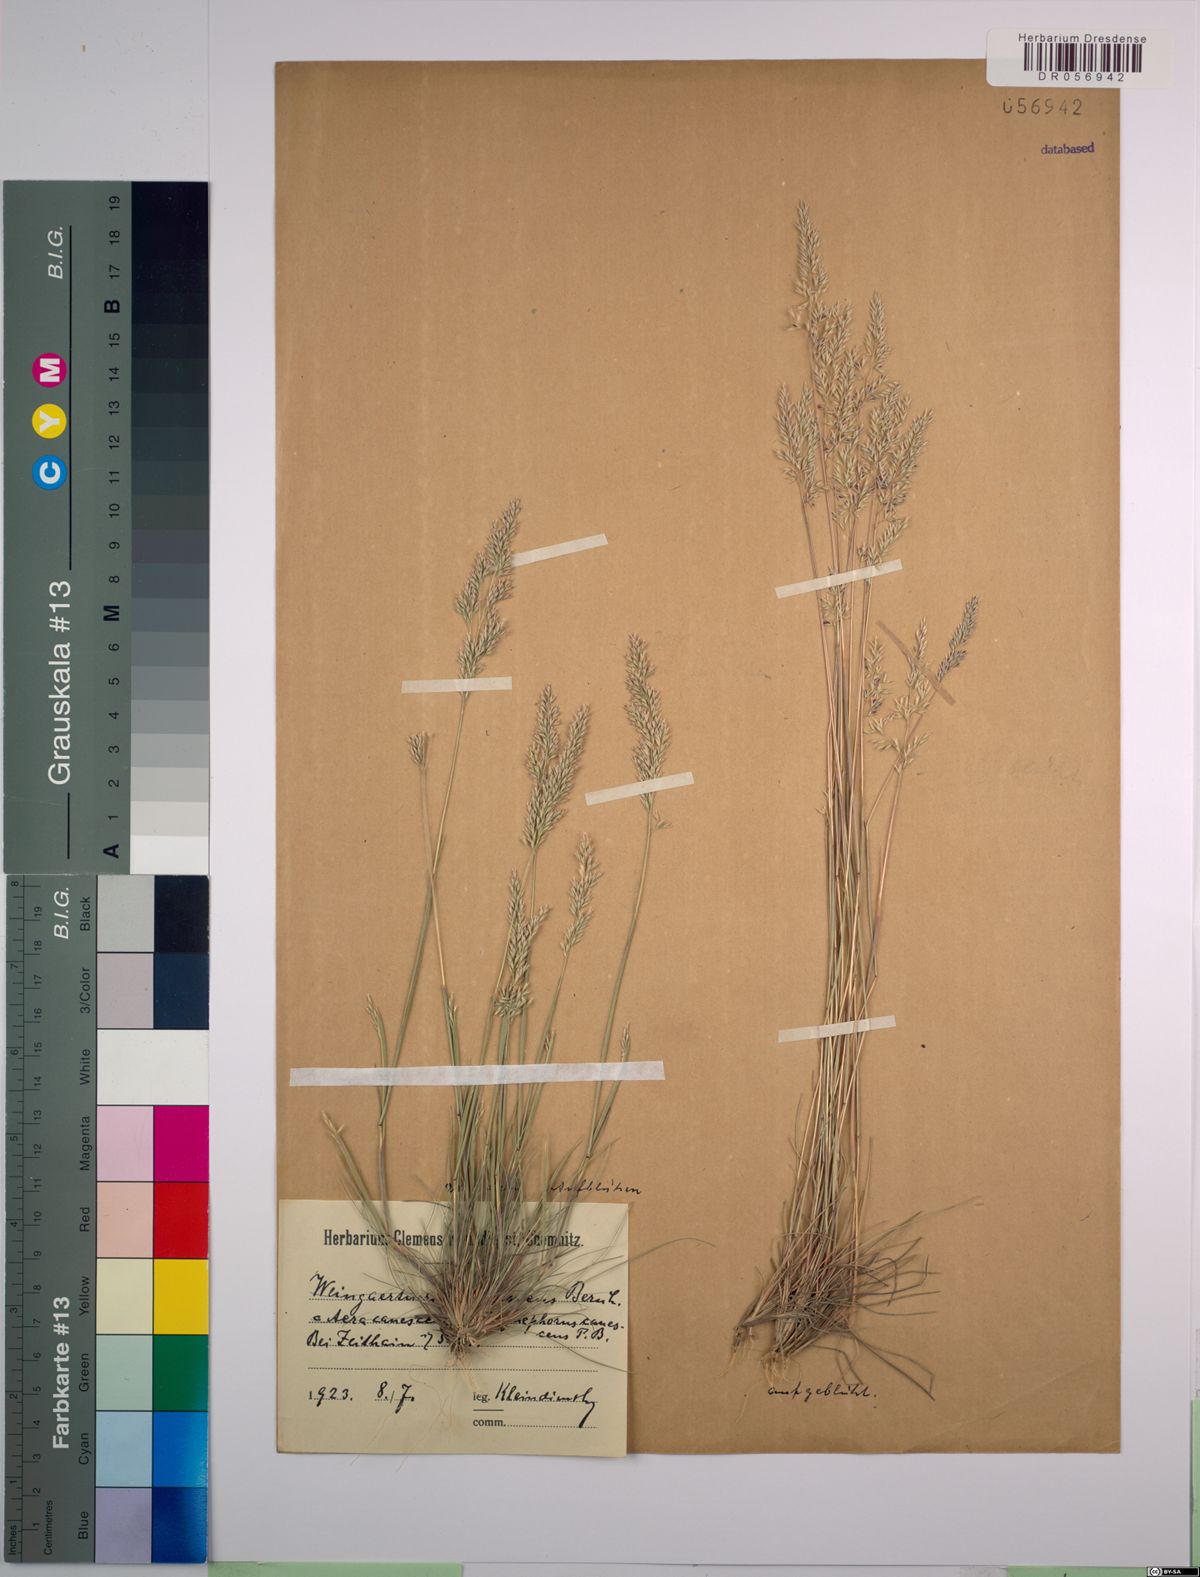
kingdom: Plantae
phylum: Tracheophyta
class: Liliopsida
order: Poales
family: Poaceae
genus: Corynephorus
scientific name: Corynephorus canescens
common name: Grey hair-grass
